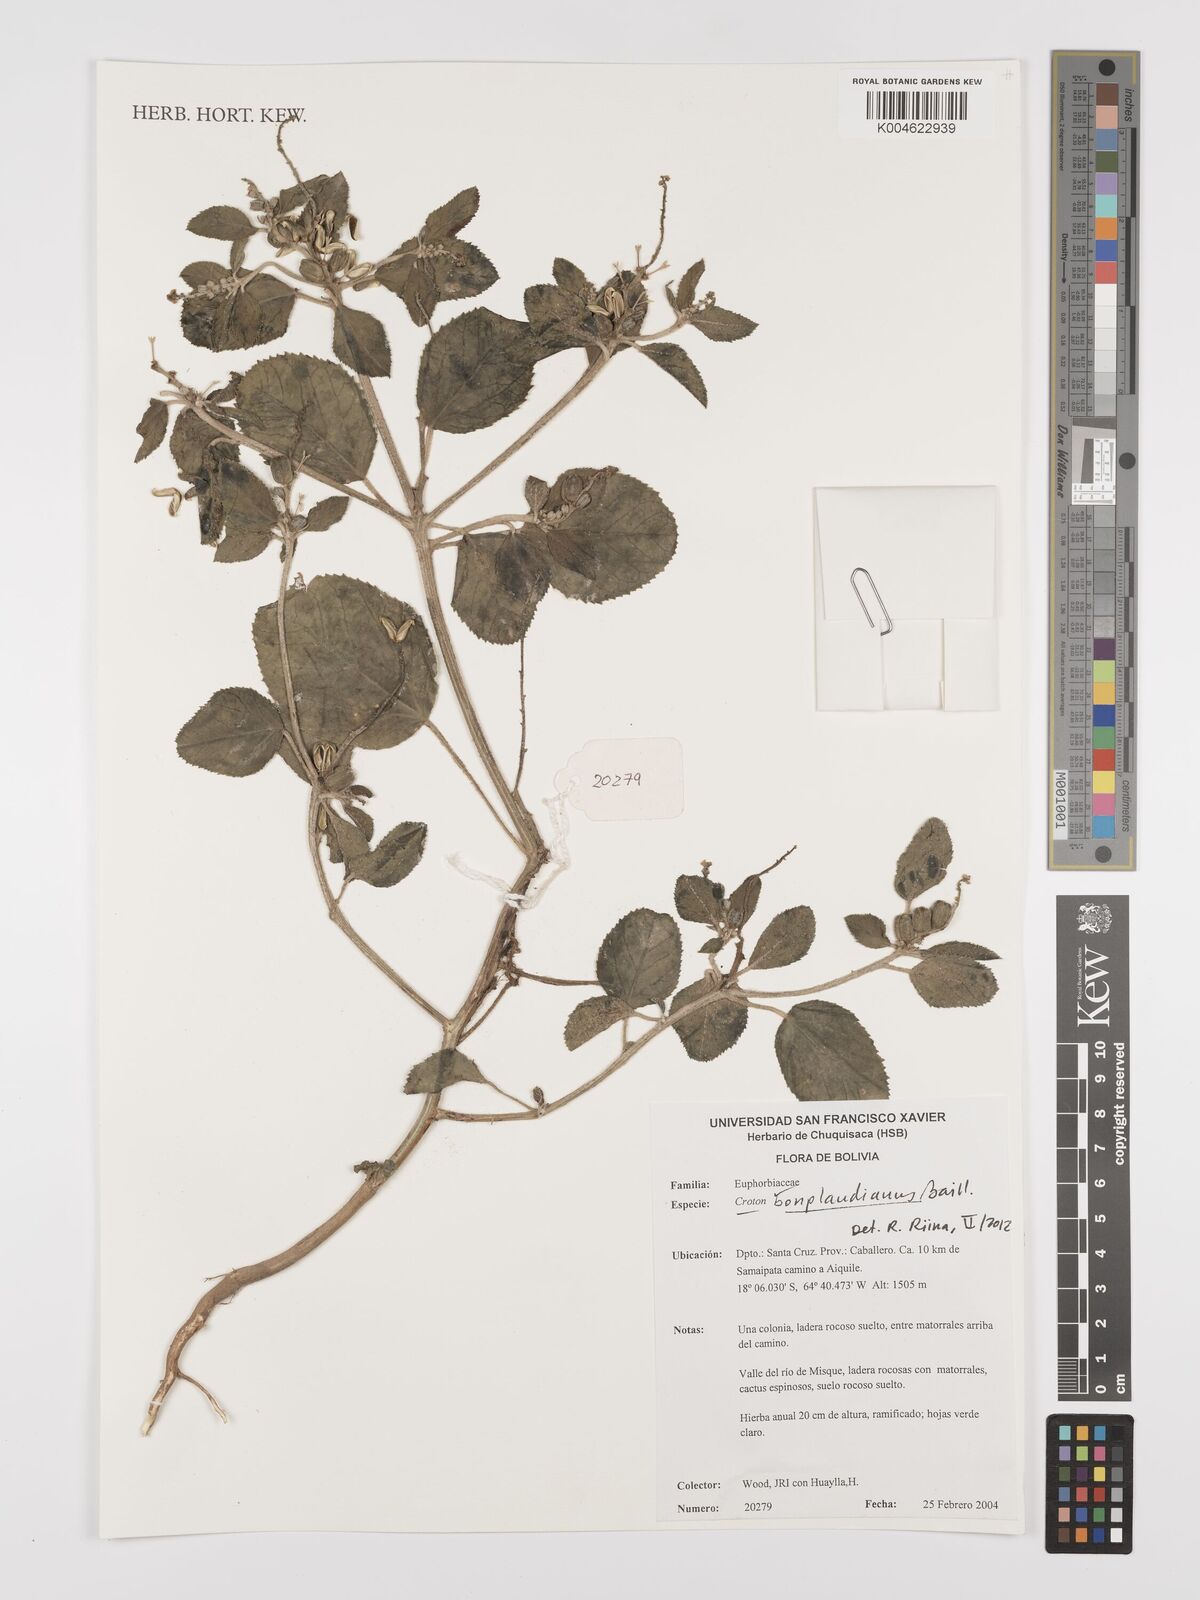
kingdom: Plantae
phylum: Tracheophyta
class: Magnoliopsida
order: Malpighiales
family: Euphorbiaceae
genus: Croton
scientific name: Croton bonplandianus
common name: Bonpland's croton
